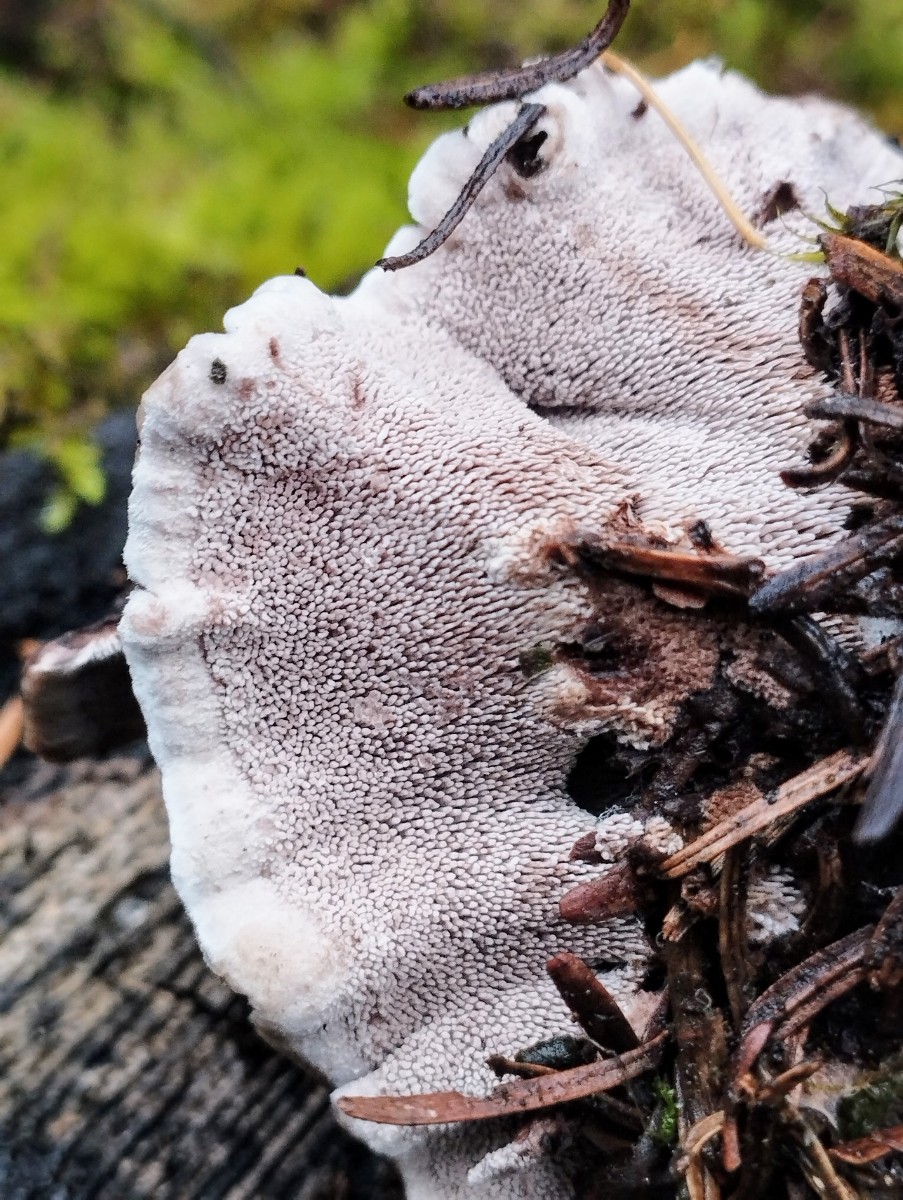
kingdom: Fungi
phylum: Basidiomycota
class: Agaricomycetes
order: Thelephorales
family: Thelephoraceae
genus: Phellodon
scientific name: Phellodon confluens
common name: pjaltet duftpigsvamp
